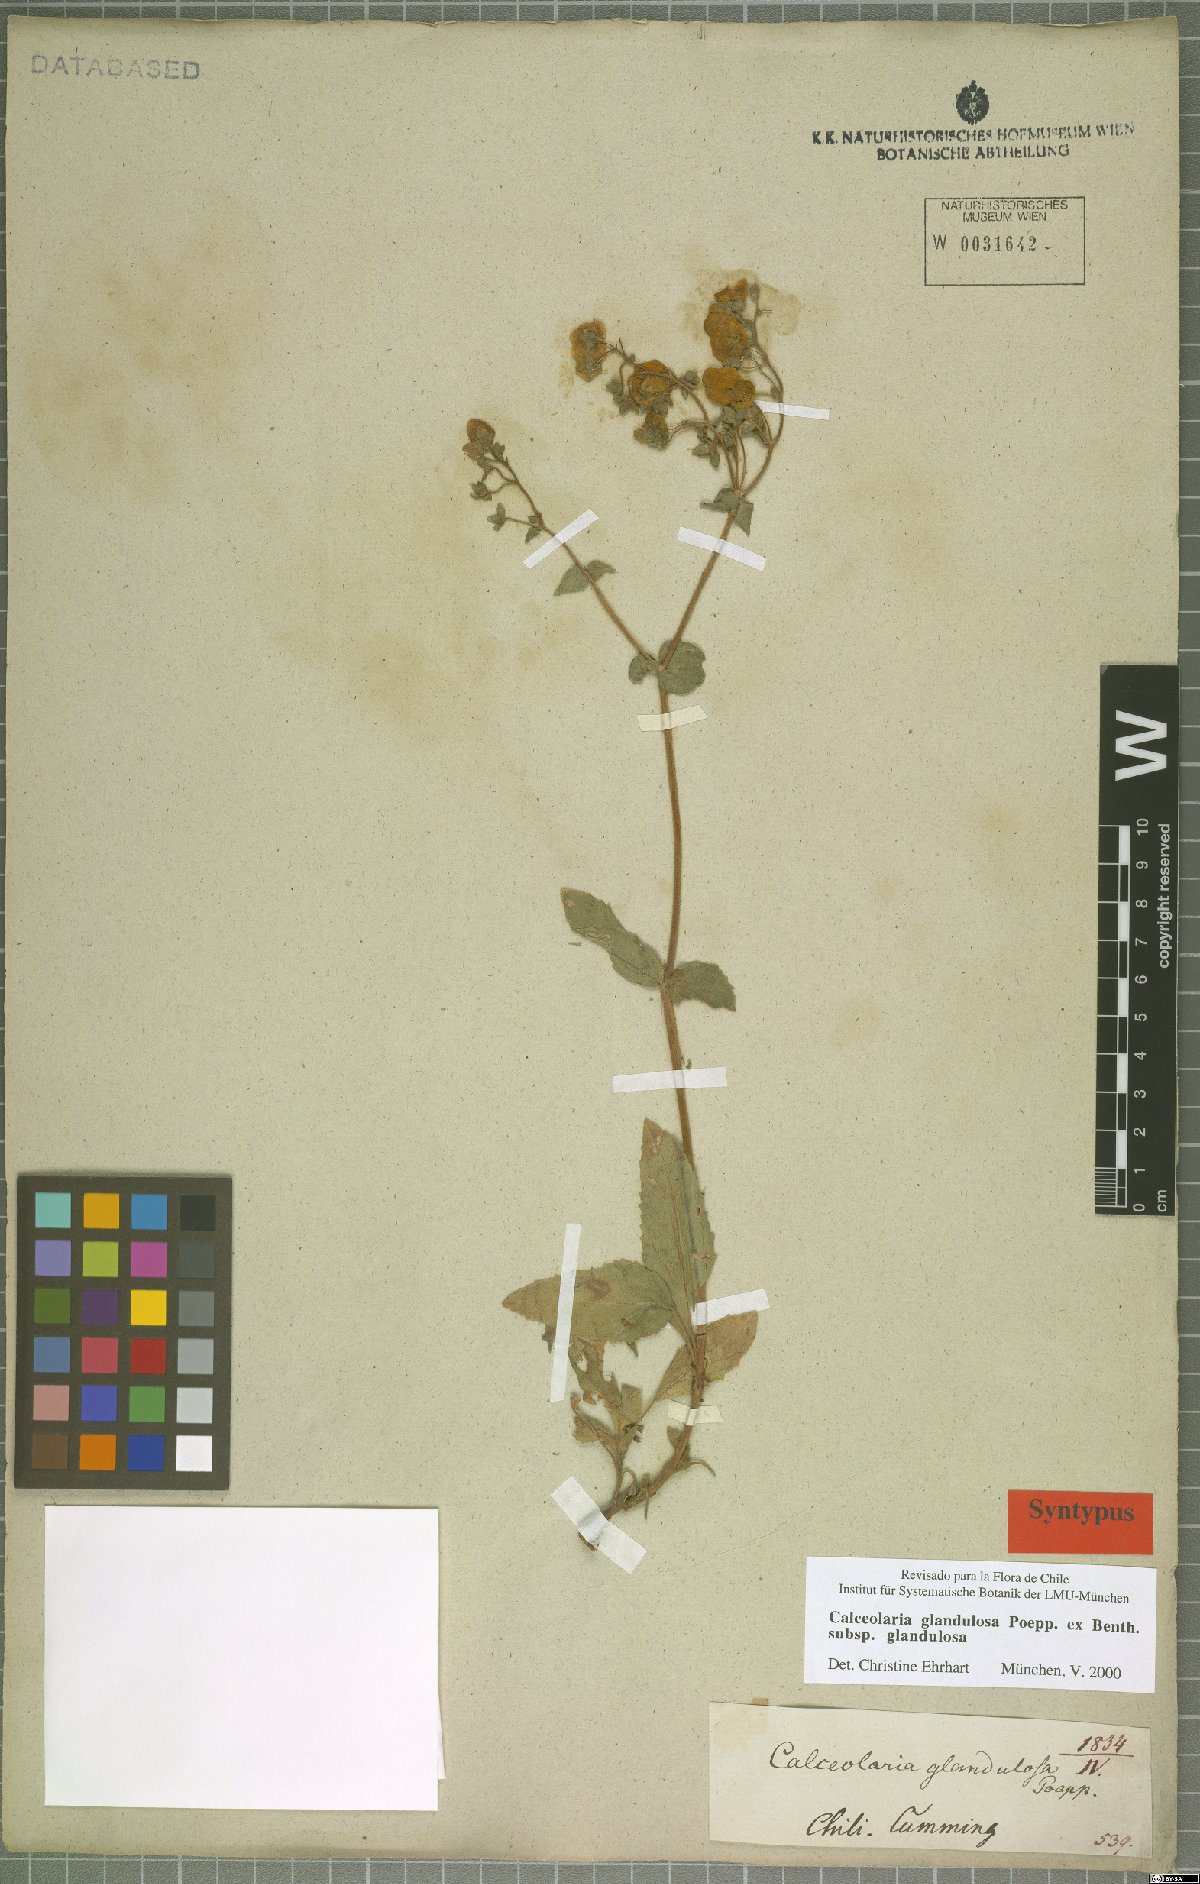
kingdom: Plantae
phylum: Tracheophyta
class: Magnoliopsida
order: Lamiales
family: Calceolariaceae
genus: Calceolaria
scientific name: Calceolaria glandulosa
